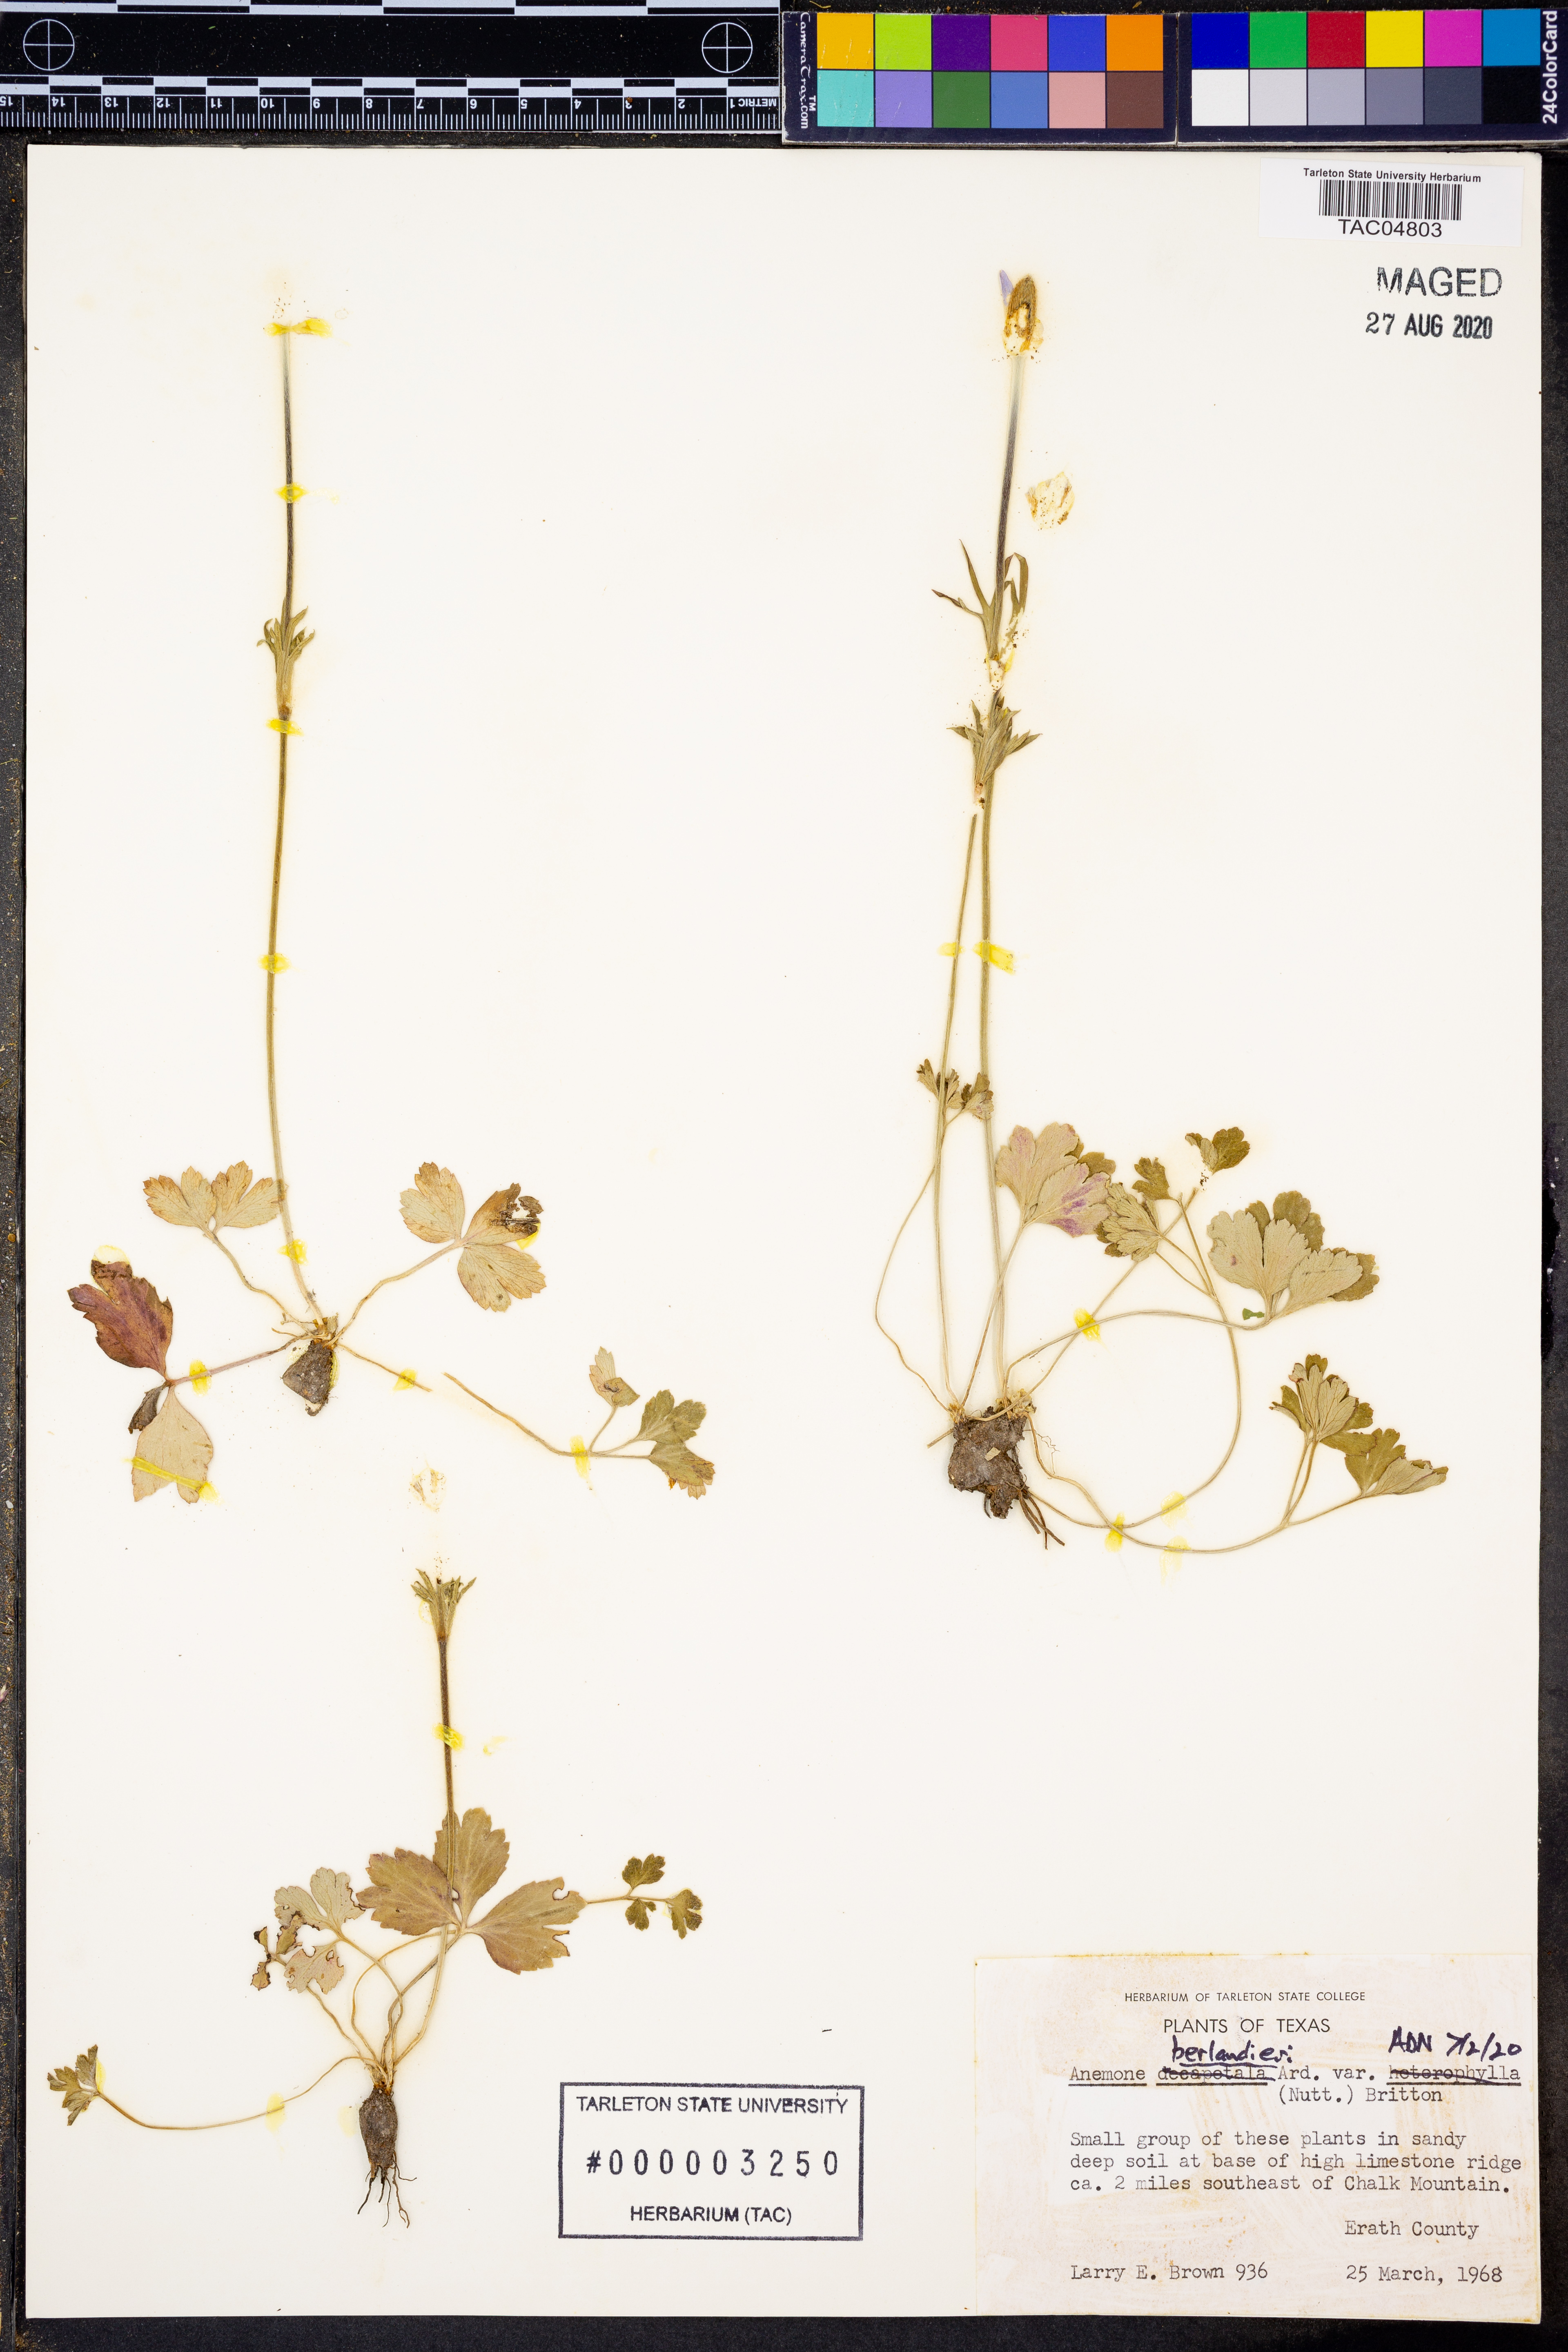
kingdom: Plantae
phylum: Tracheophyta
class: Magnoliopsida
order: Ranunculales
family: Ranunculaceae
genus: Anemone
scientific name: Anemone berlandieri
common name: Ten-petal anemone
